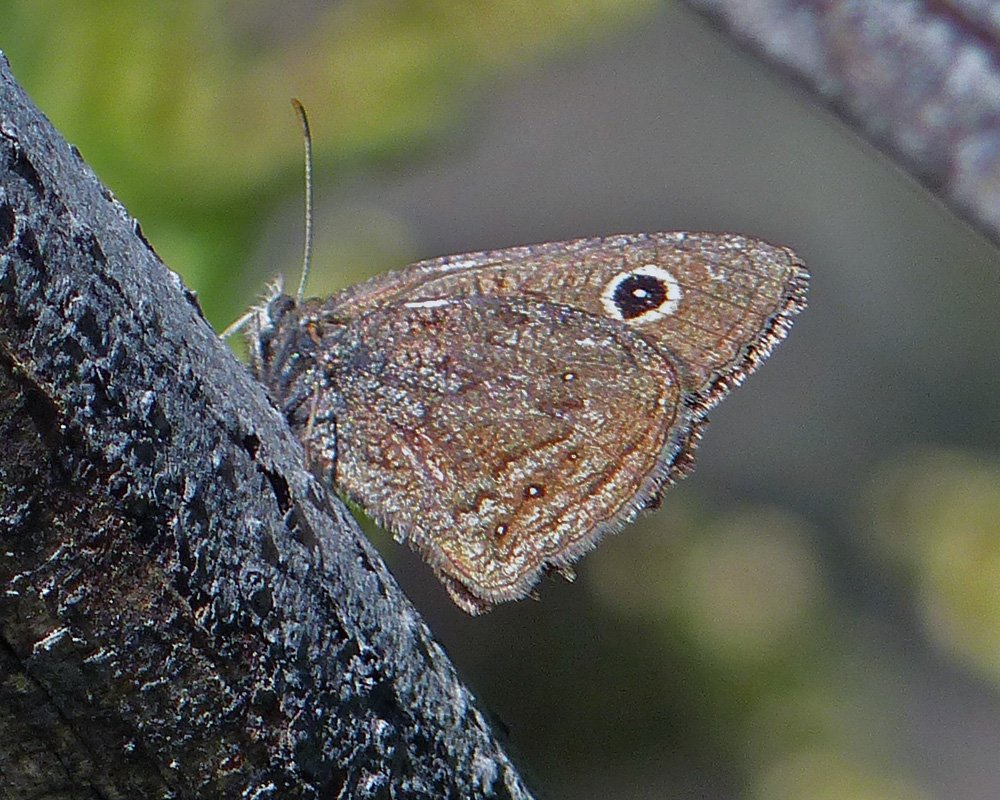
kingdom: Animalia
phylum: Arthropoda
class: Insecta
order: Lepidoptera
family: Nymphalidae
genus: Cercyonis
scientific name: Cercyonis oetus
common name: Small Wood-Nymph
